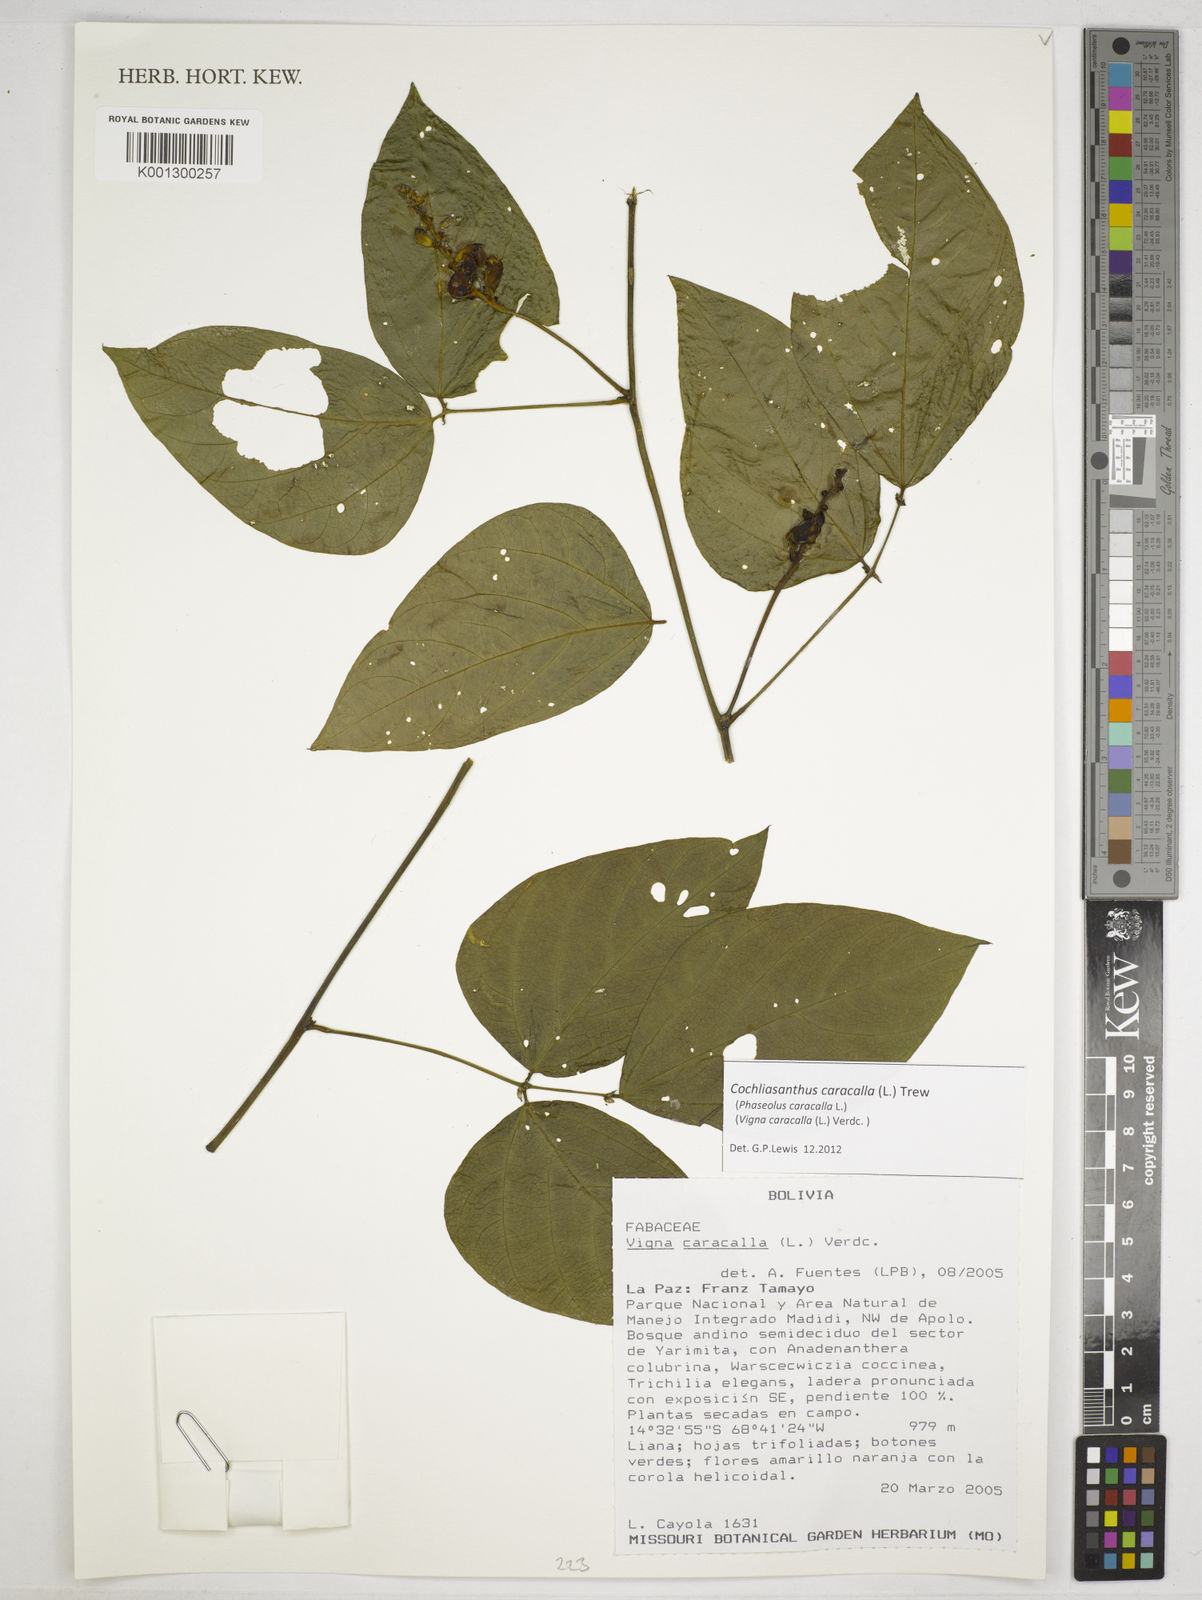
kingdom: Plantae
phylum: Tracheophyta
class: Magnoliopsida
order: Fabales
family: Fabaceae
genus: Cochliasanthus
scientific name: Cochliasanthus caracalla
